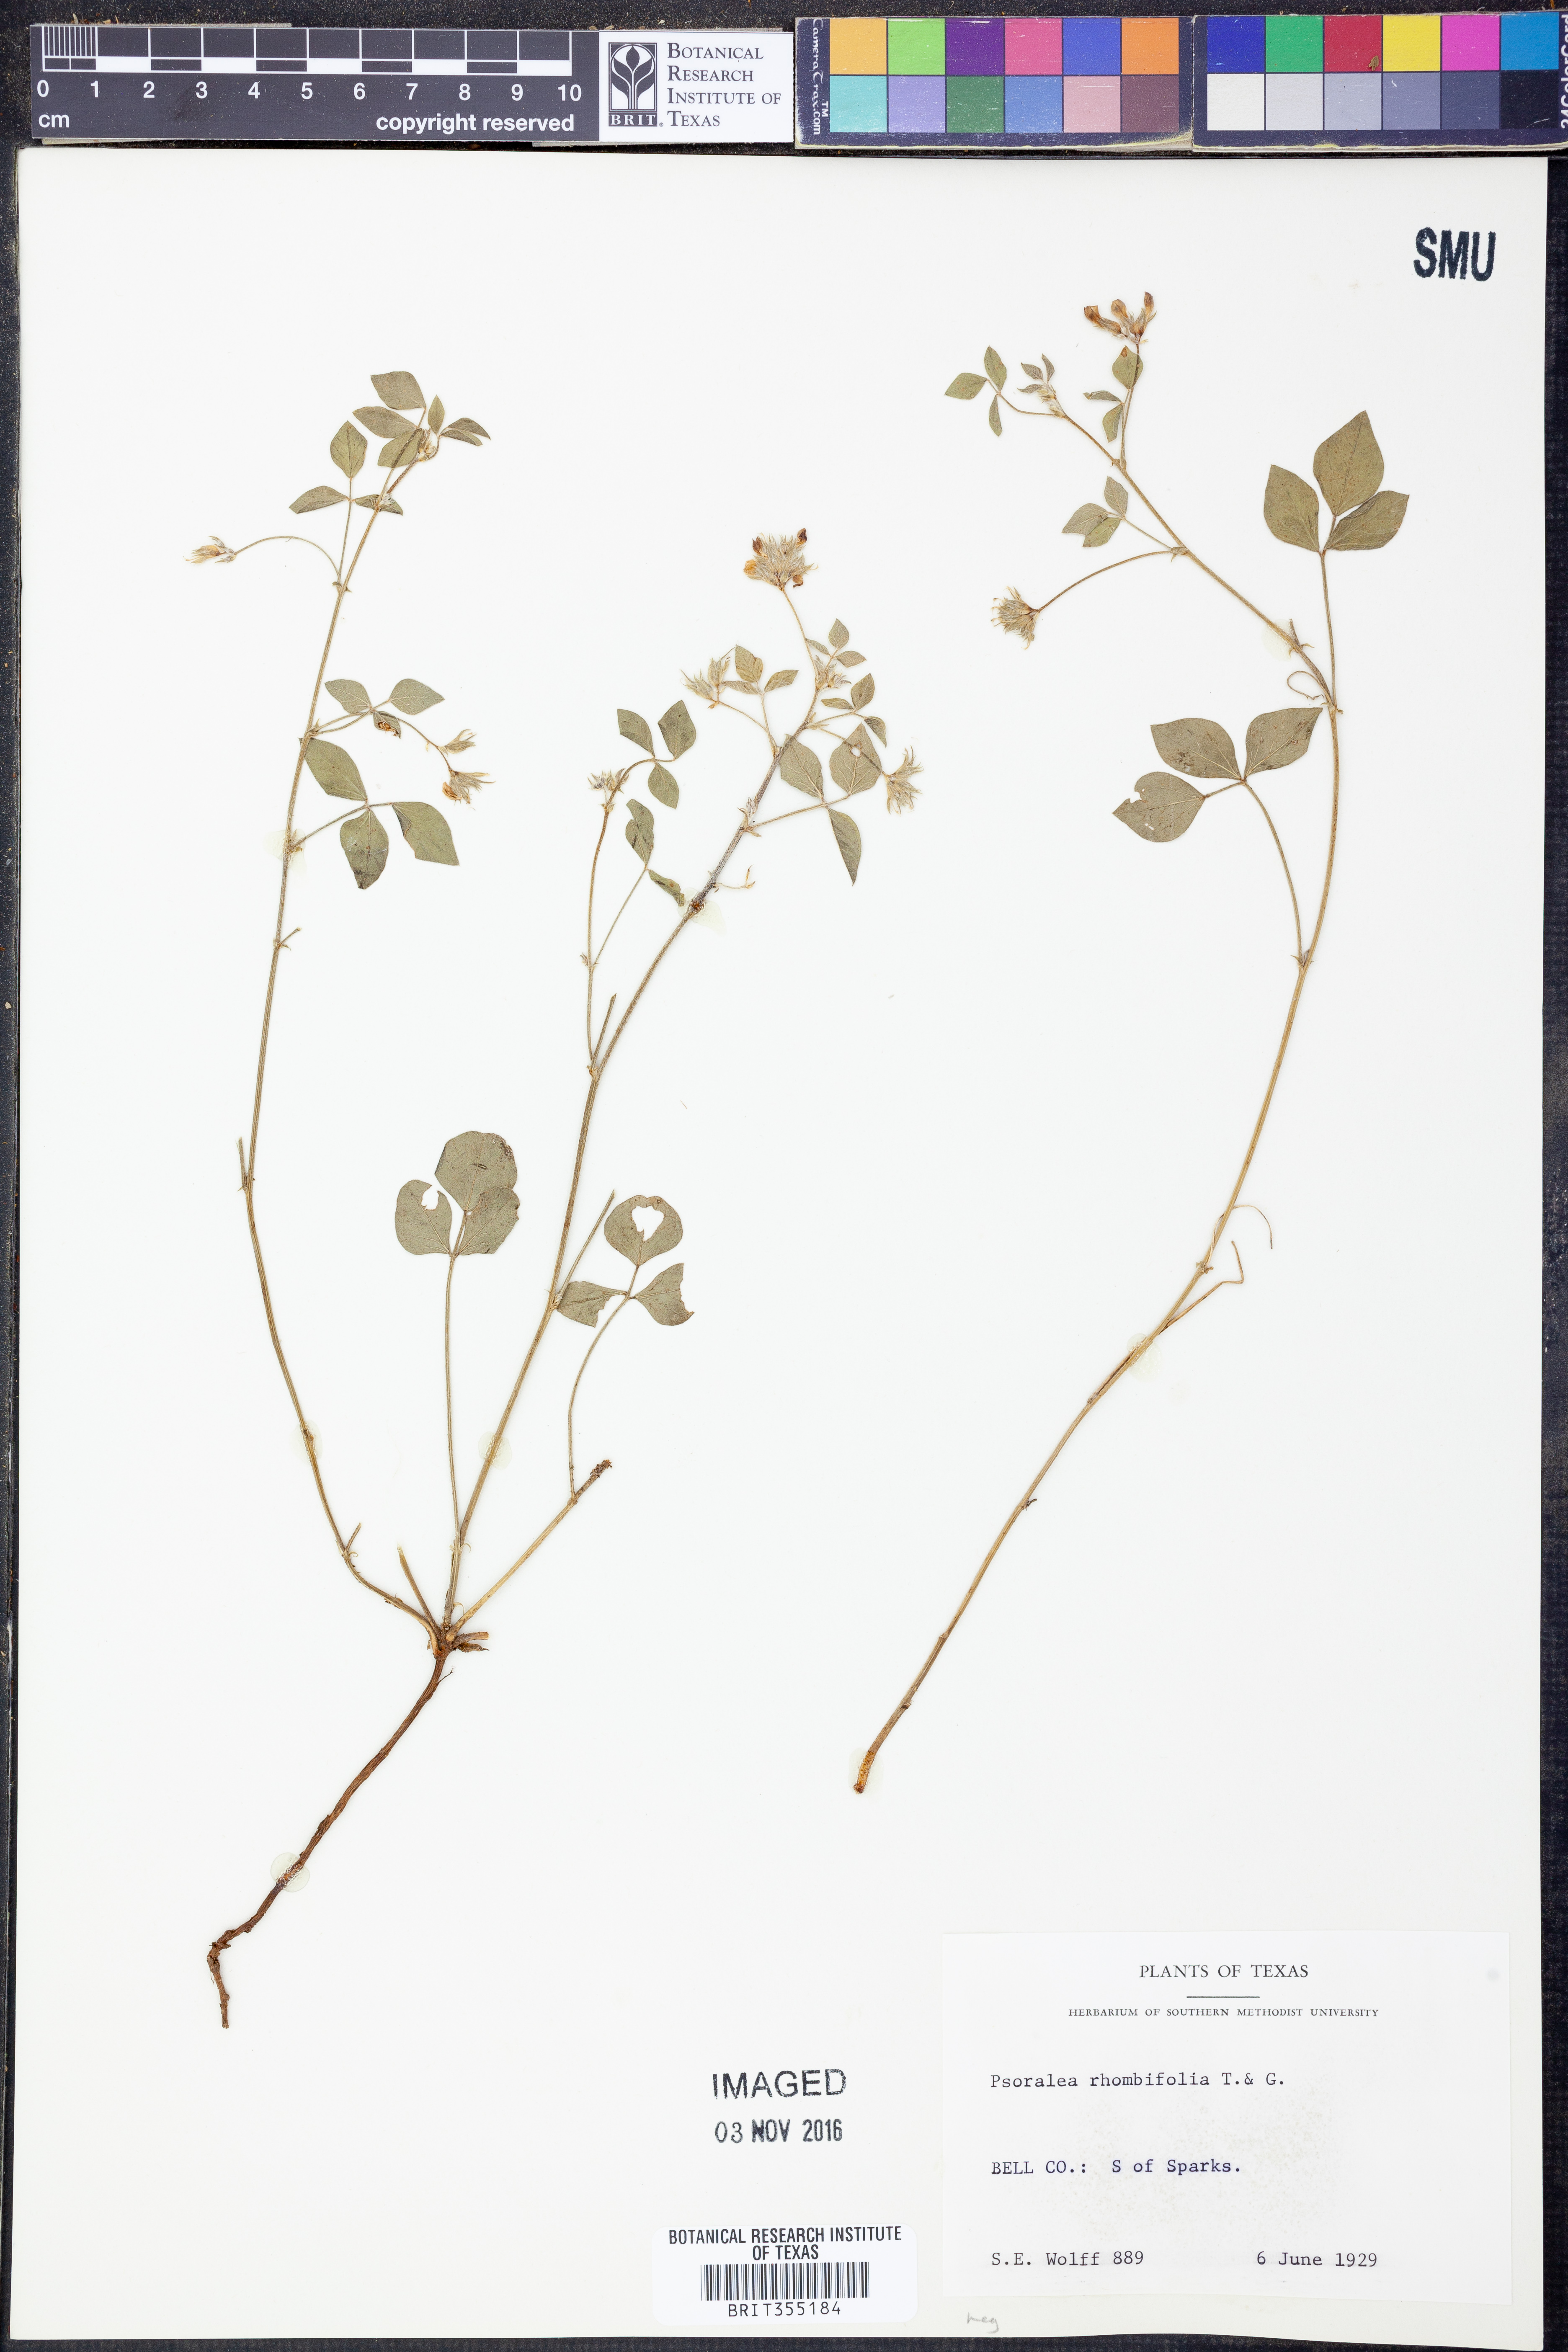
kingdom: Plantae
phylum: Tracheophyta
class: Magnoliopsida
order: Fabales
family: Fabaceae
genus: Pediomelum
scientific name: Pediomelum rhombifolium
